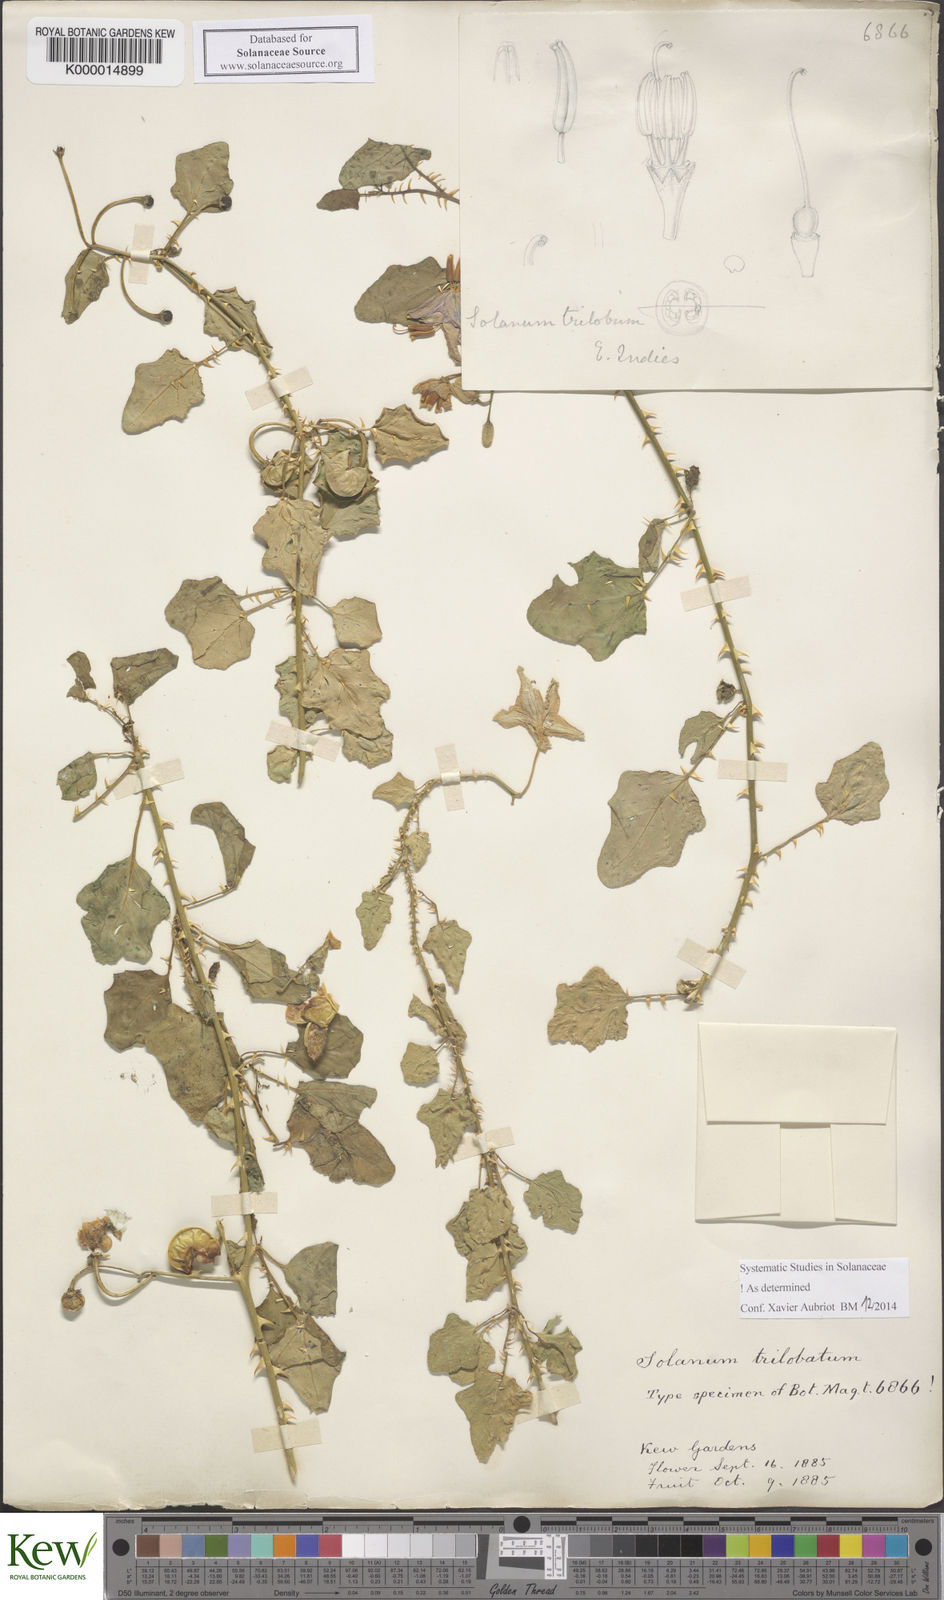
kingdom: Plantae
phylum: Tracheophyta
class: Magnoliopsida
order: Solanales
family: Solanaceae
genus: Solanum
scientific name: Solanum trilobatum
